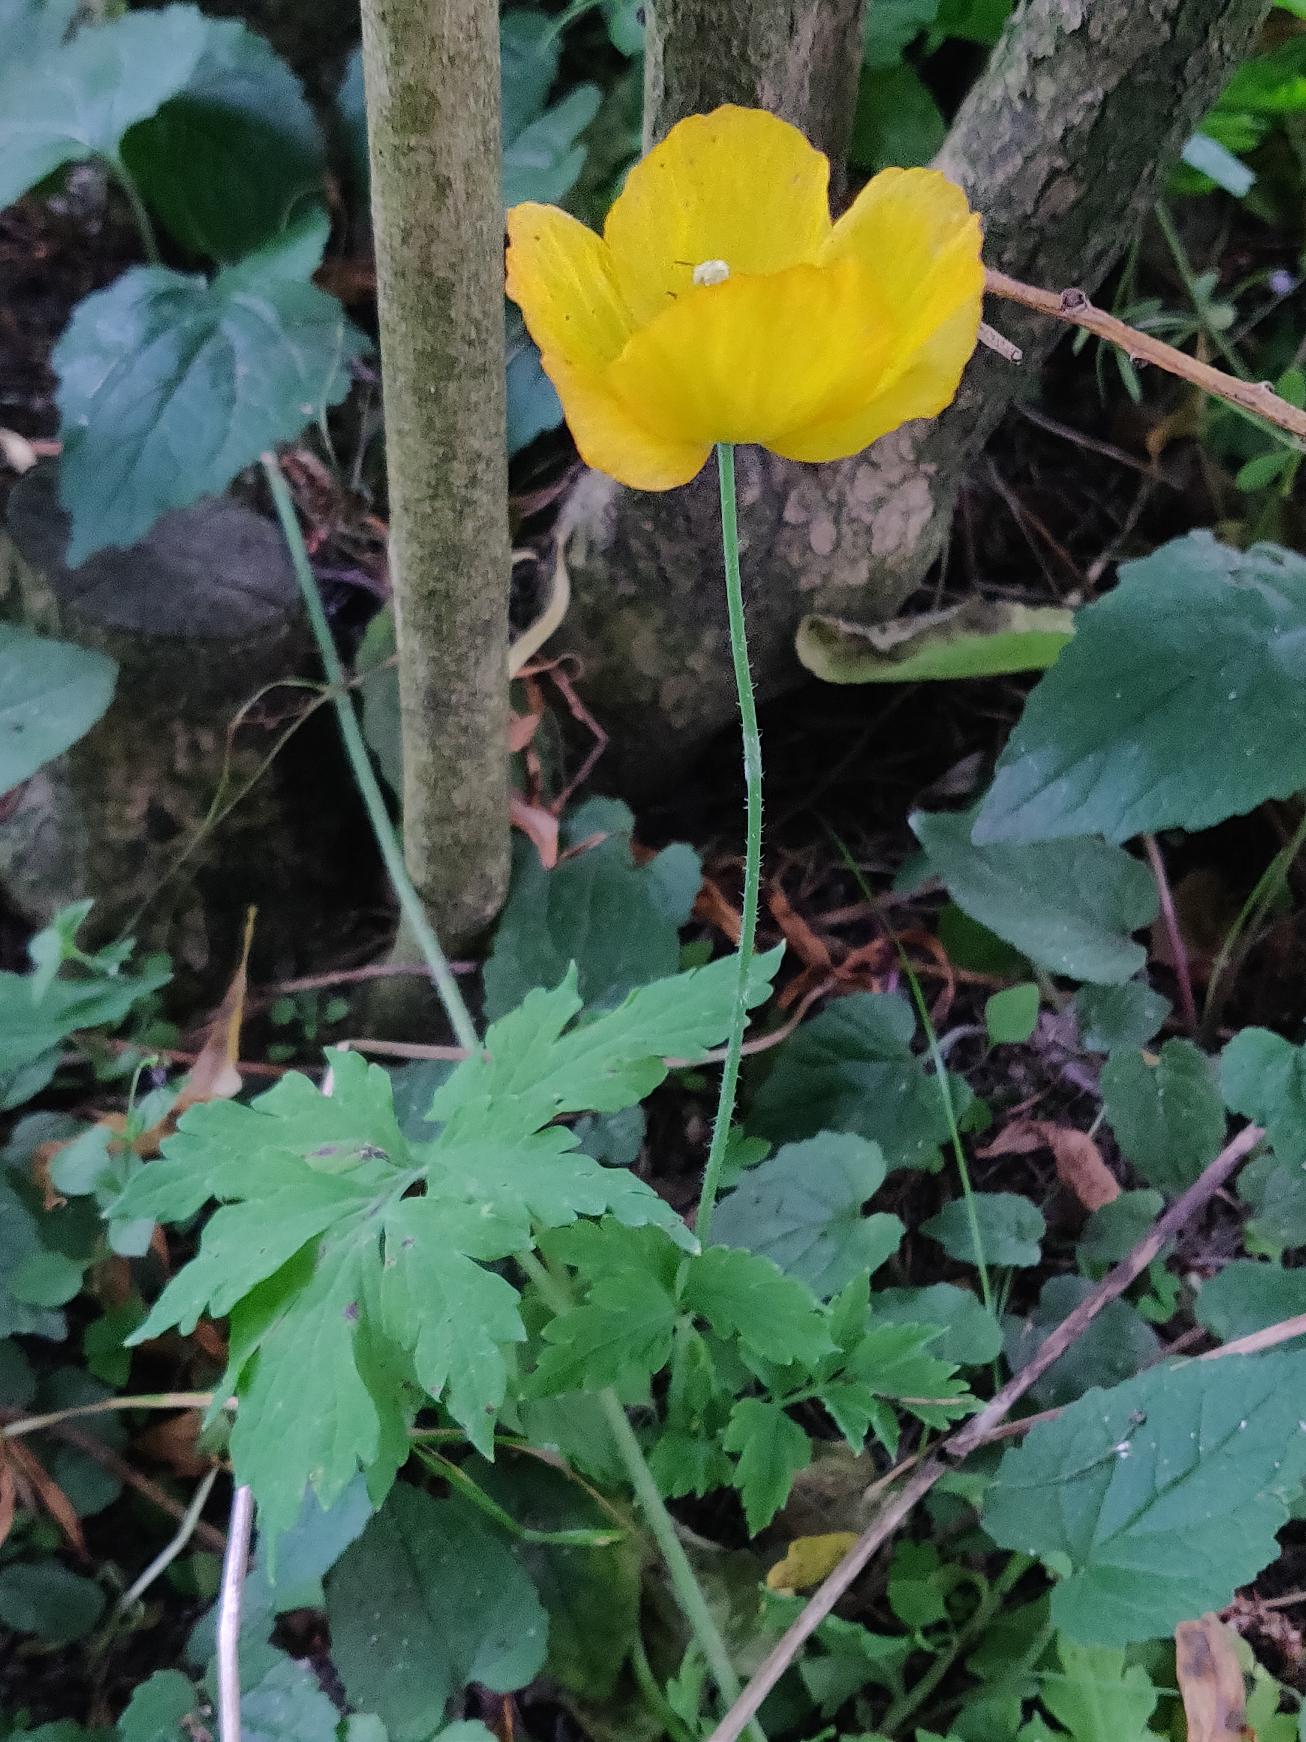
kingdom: Plantae
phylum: Tracheophyta
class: Magnoliopsida
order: Ranunculales
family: Papaveraceae
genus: Papaver
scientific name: Papaver cambricum
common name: Skov-valmue
